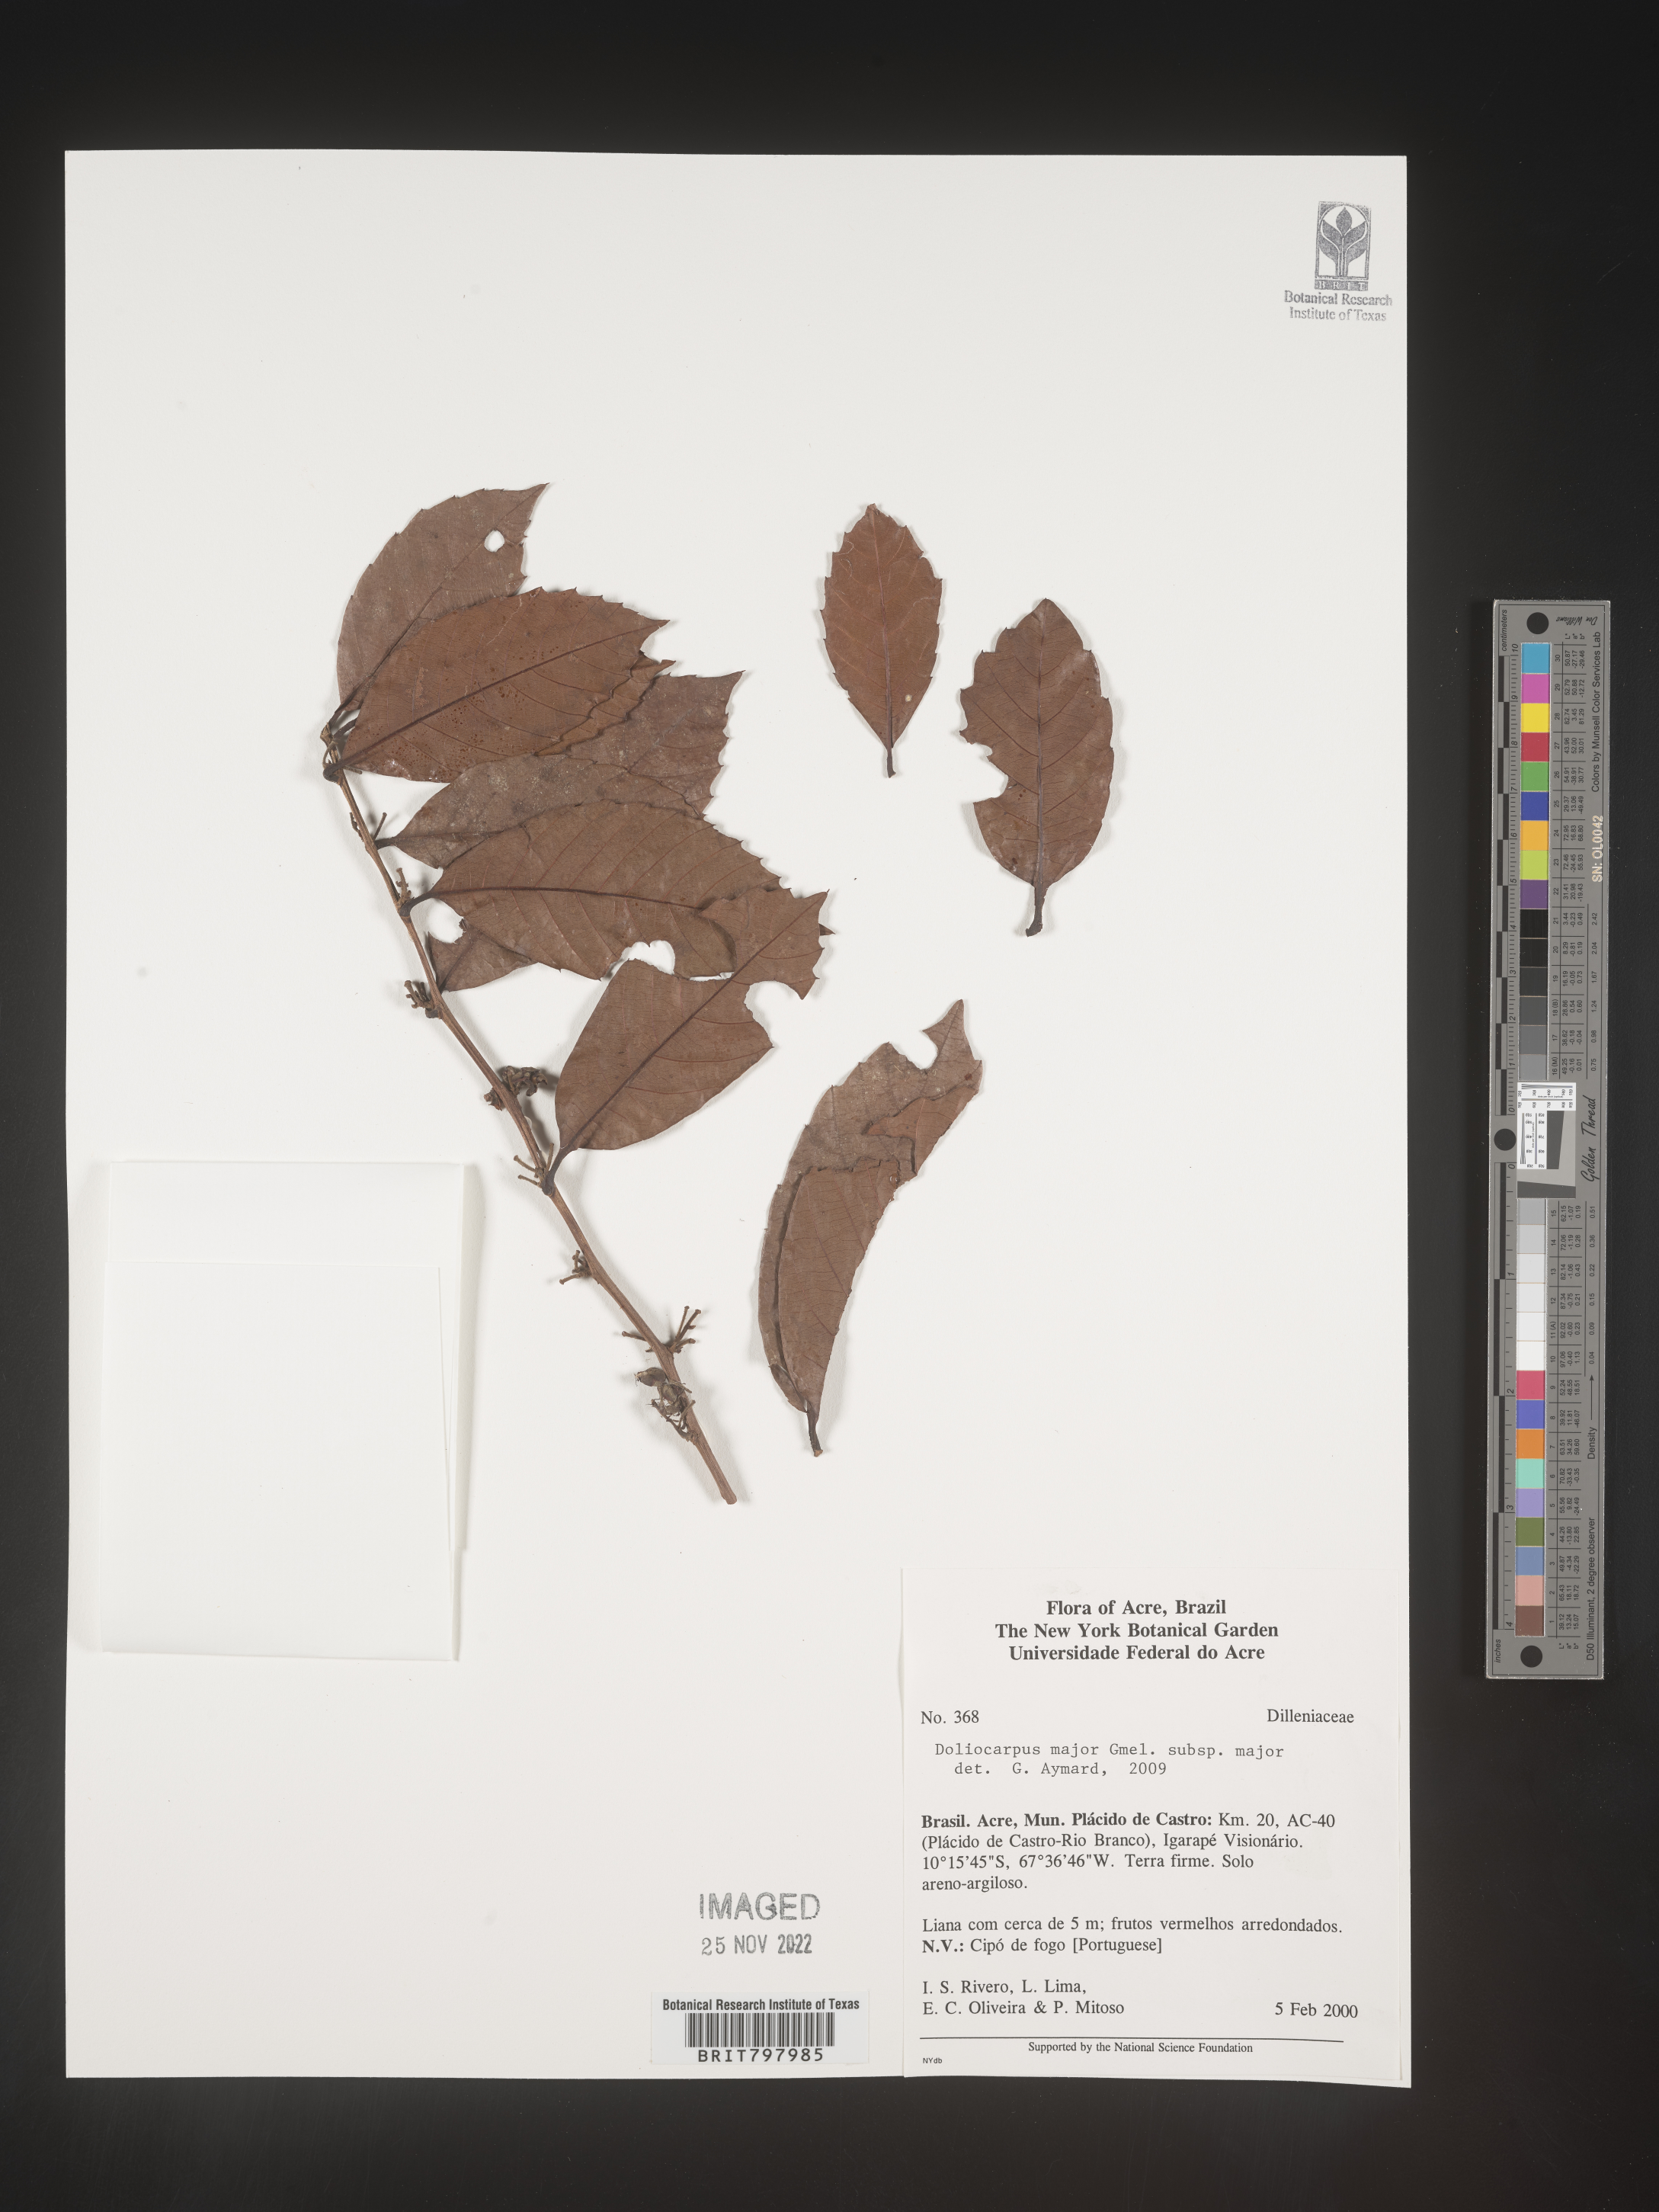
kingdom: Plantae
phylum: Tracheophyta
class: Magnoliopsida
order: Dilleniales
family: Dilleniaceae
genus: Doliocarpus
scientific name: Doliocarpus
